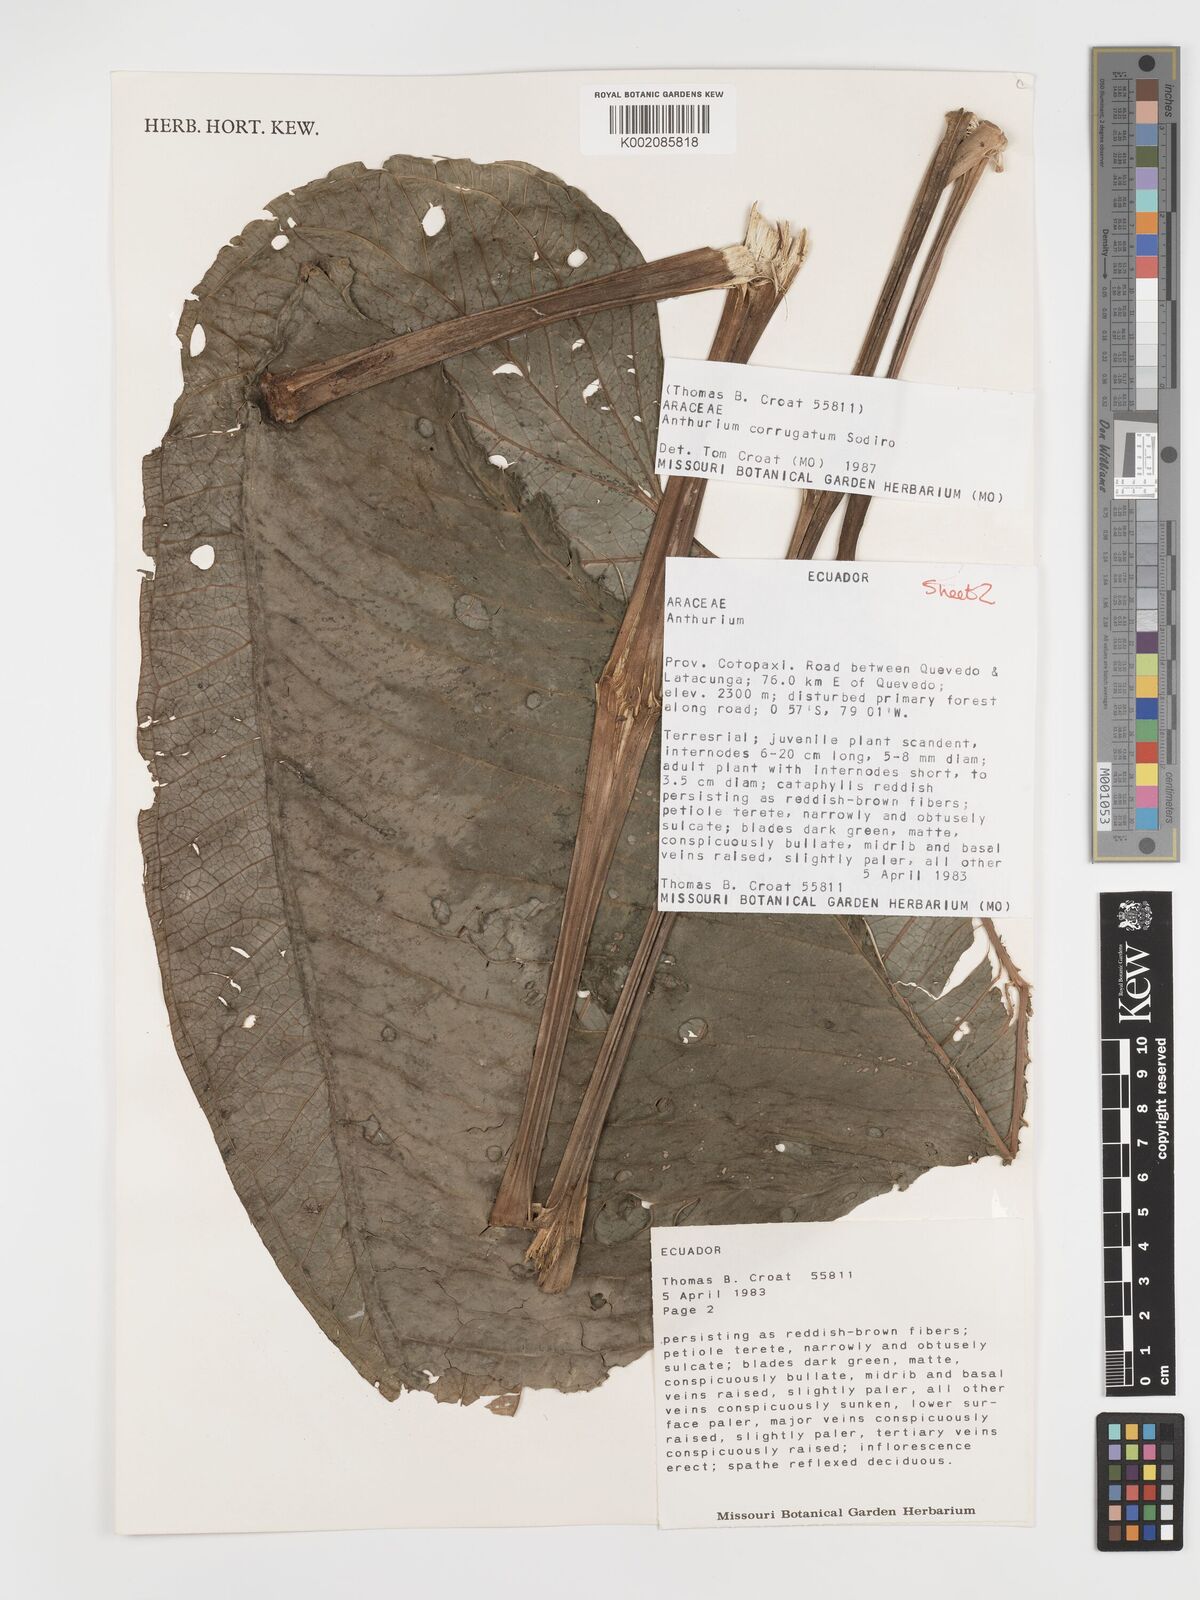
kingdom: Plantae
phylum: Tracheophyta
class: Liliopsida
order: Alismatales
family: Araceae
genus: Anthurium
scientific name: Anthurium corrugatum
